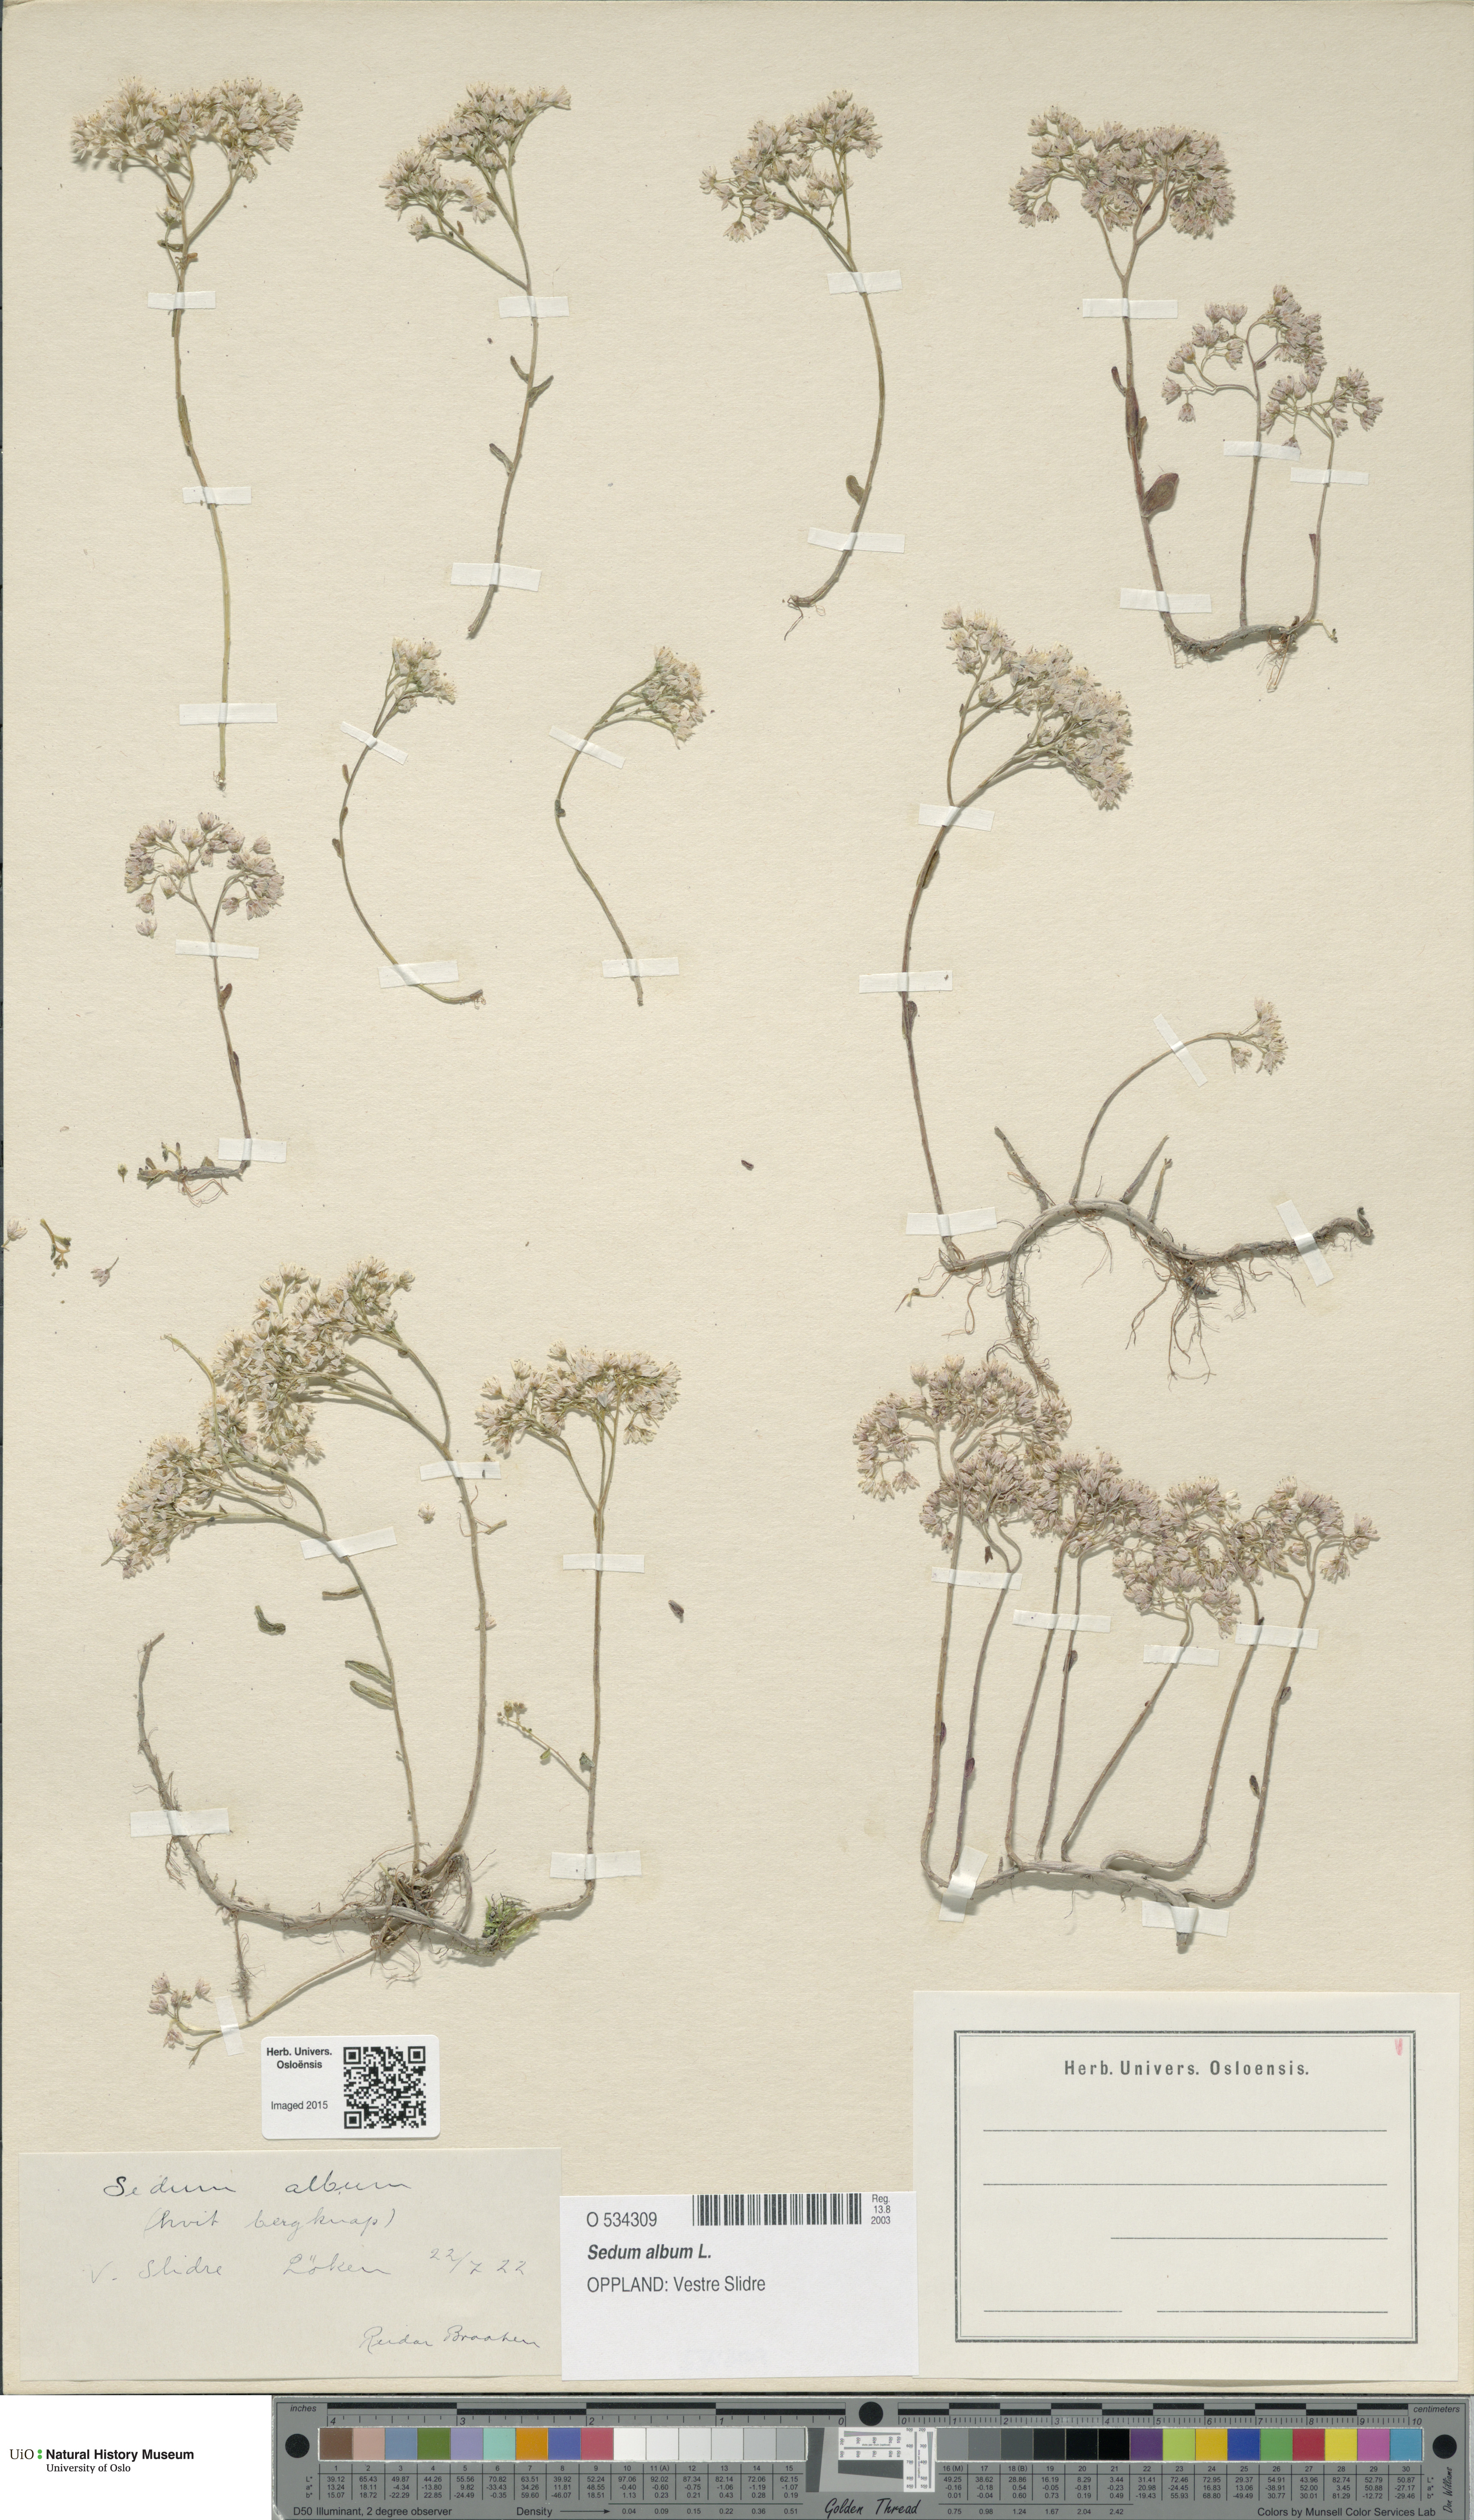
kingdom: Plantae
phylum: Tracheophyta
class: Magnoliopsida
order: Saxifragales
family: Crassulaceae
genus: Sedum
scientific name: Sedum album
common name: White stonecrop
